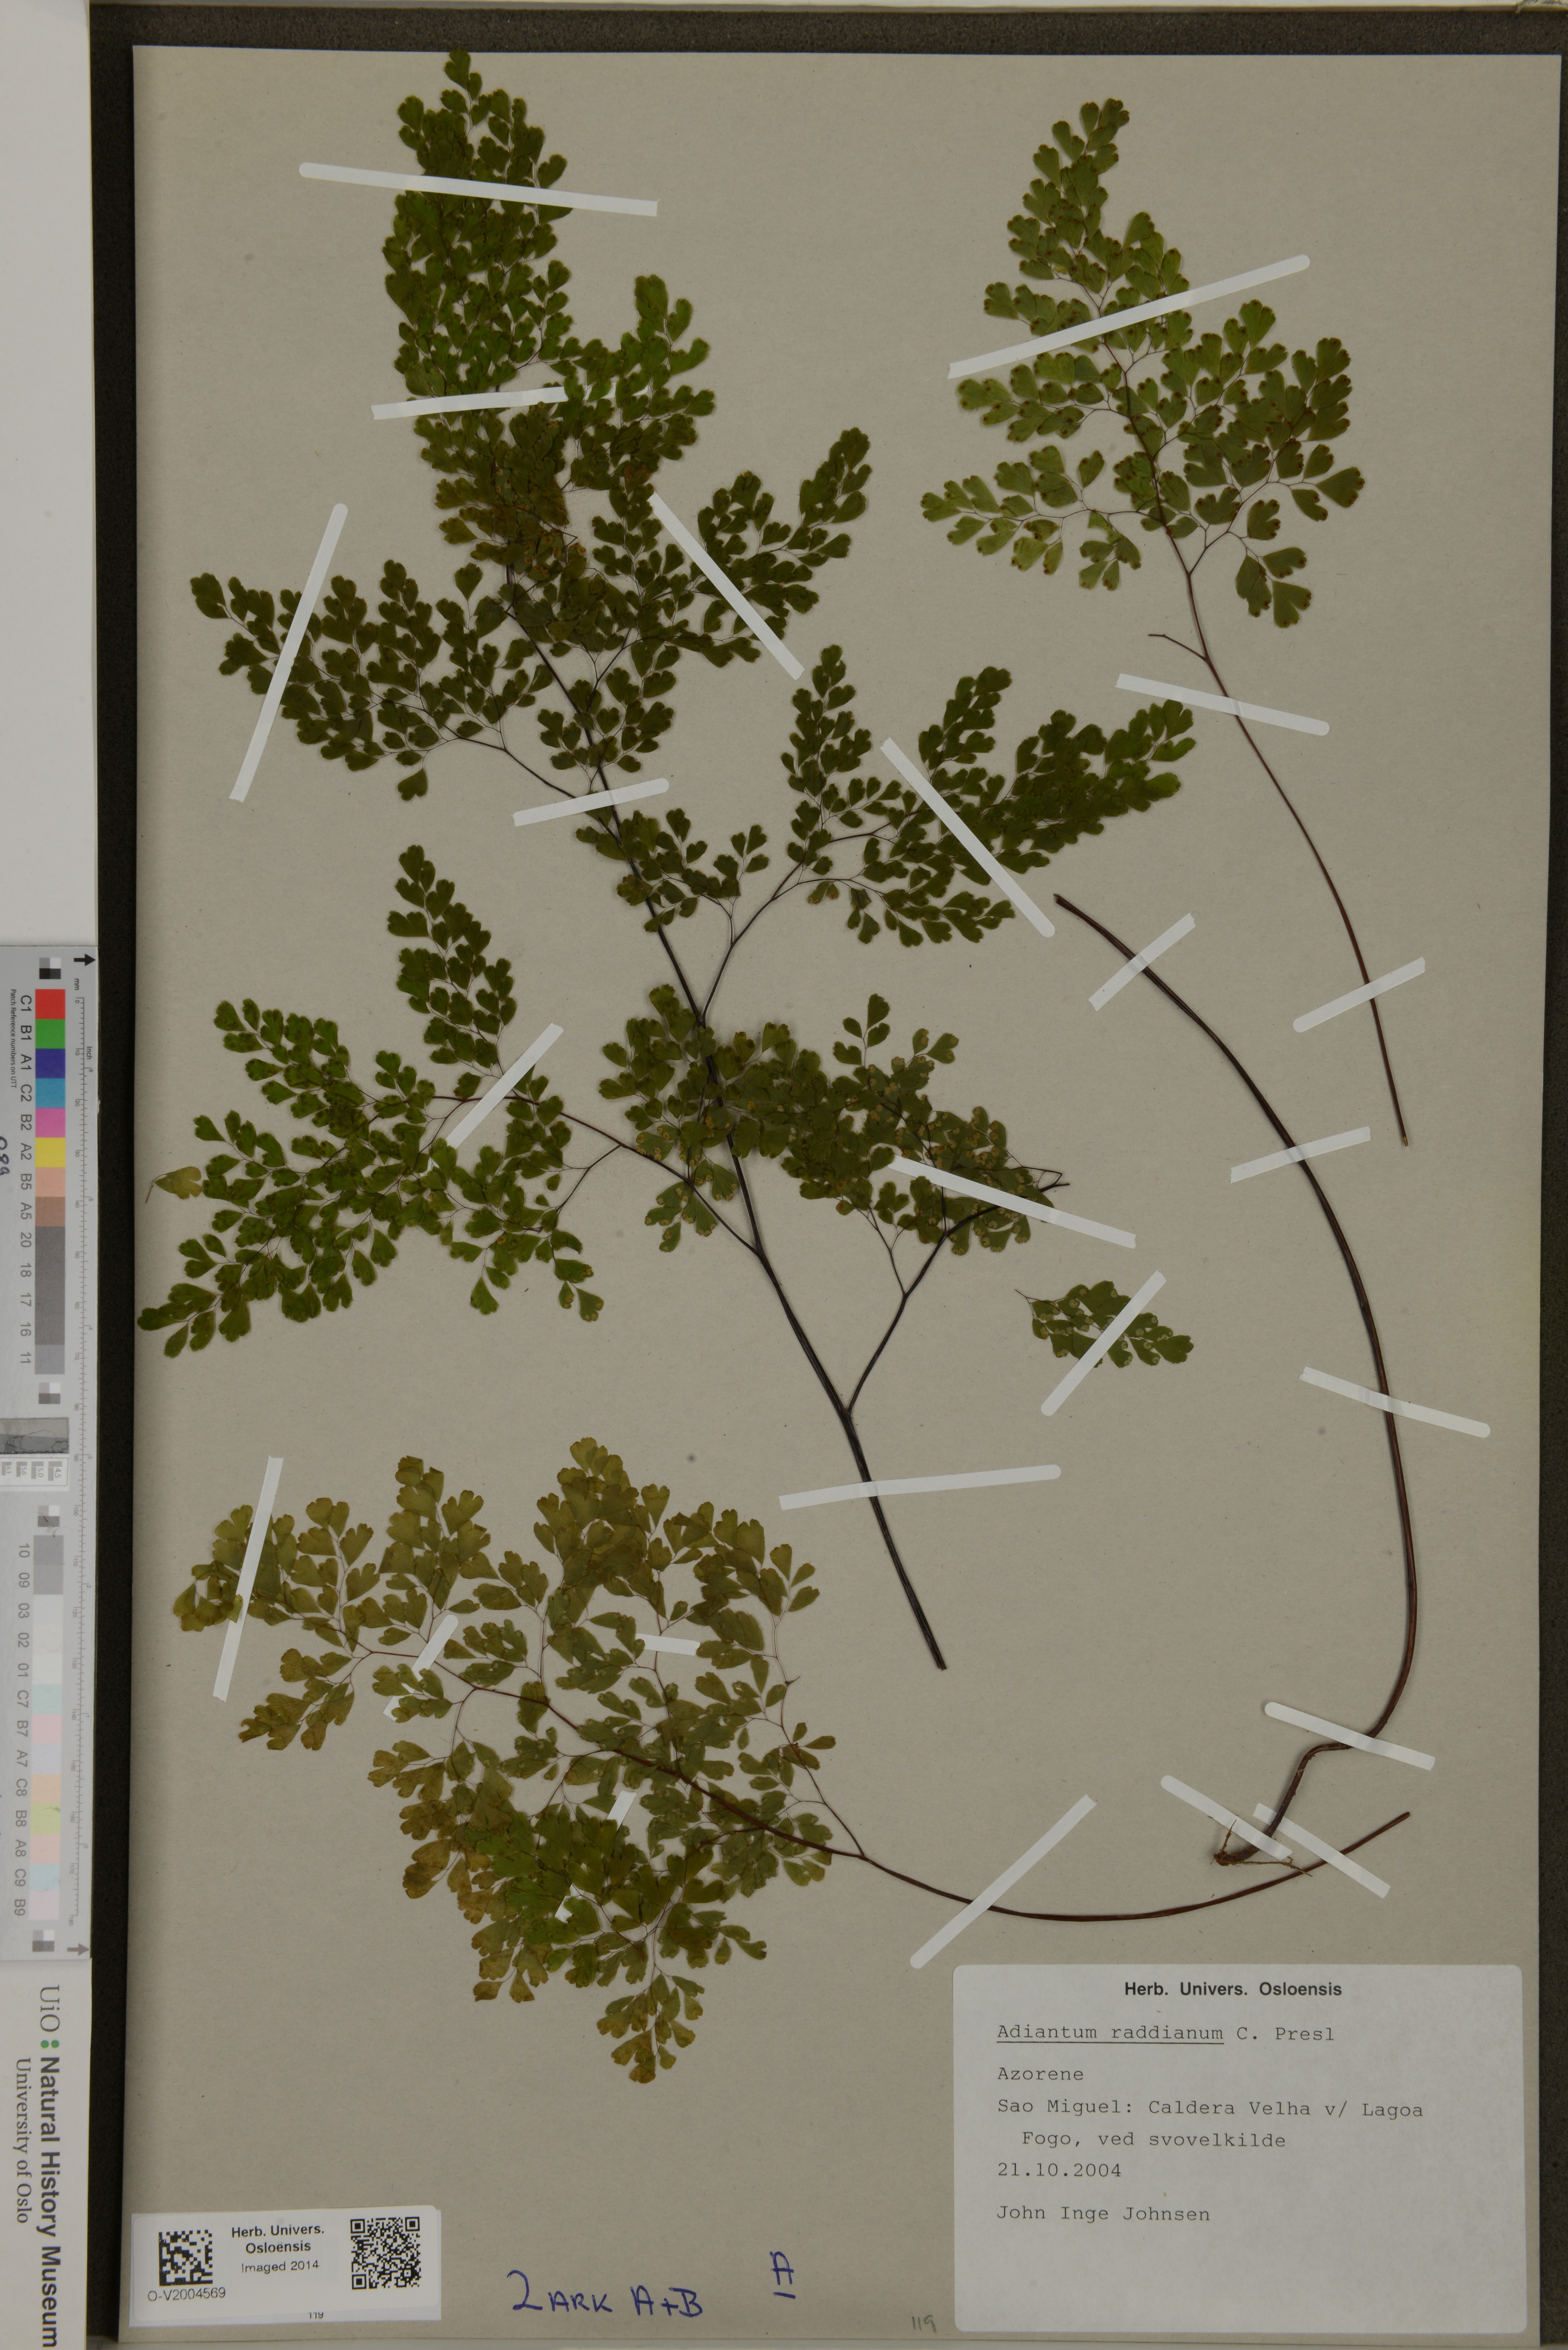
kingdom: Plantae
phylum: Tracheophyta
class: Polypodiopsida
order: Polypodiales
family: Pteridaceae
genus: Adiantum
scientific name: Adiantum raddianum
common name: Delta maidenhair fern
